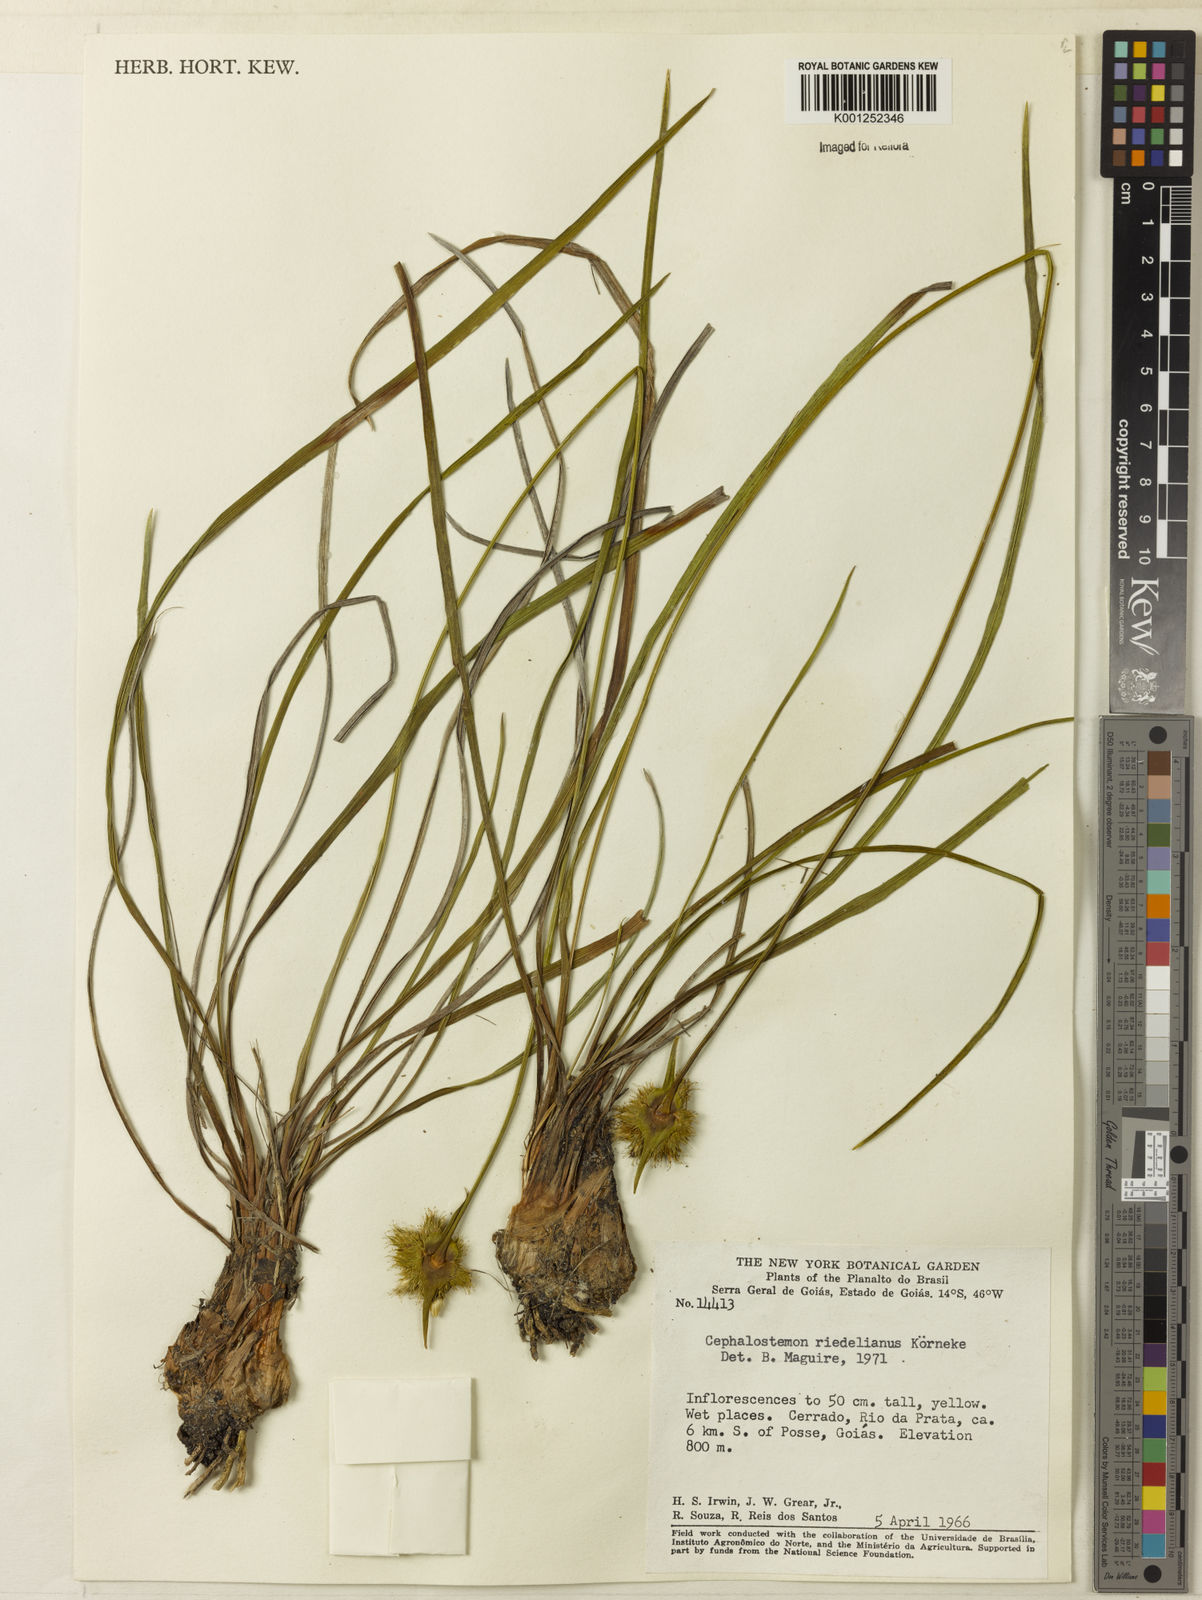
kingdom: Plantae
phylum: Tracheophyta
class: Liliopsida
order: Poales
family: Rapateaceae
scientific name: Rapateaceae
